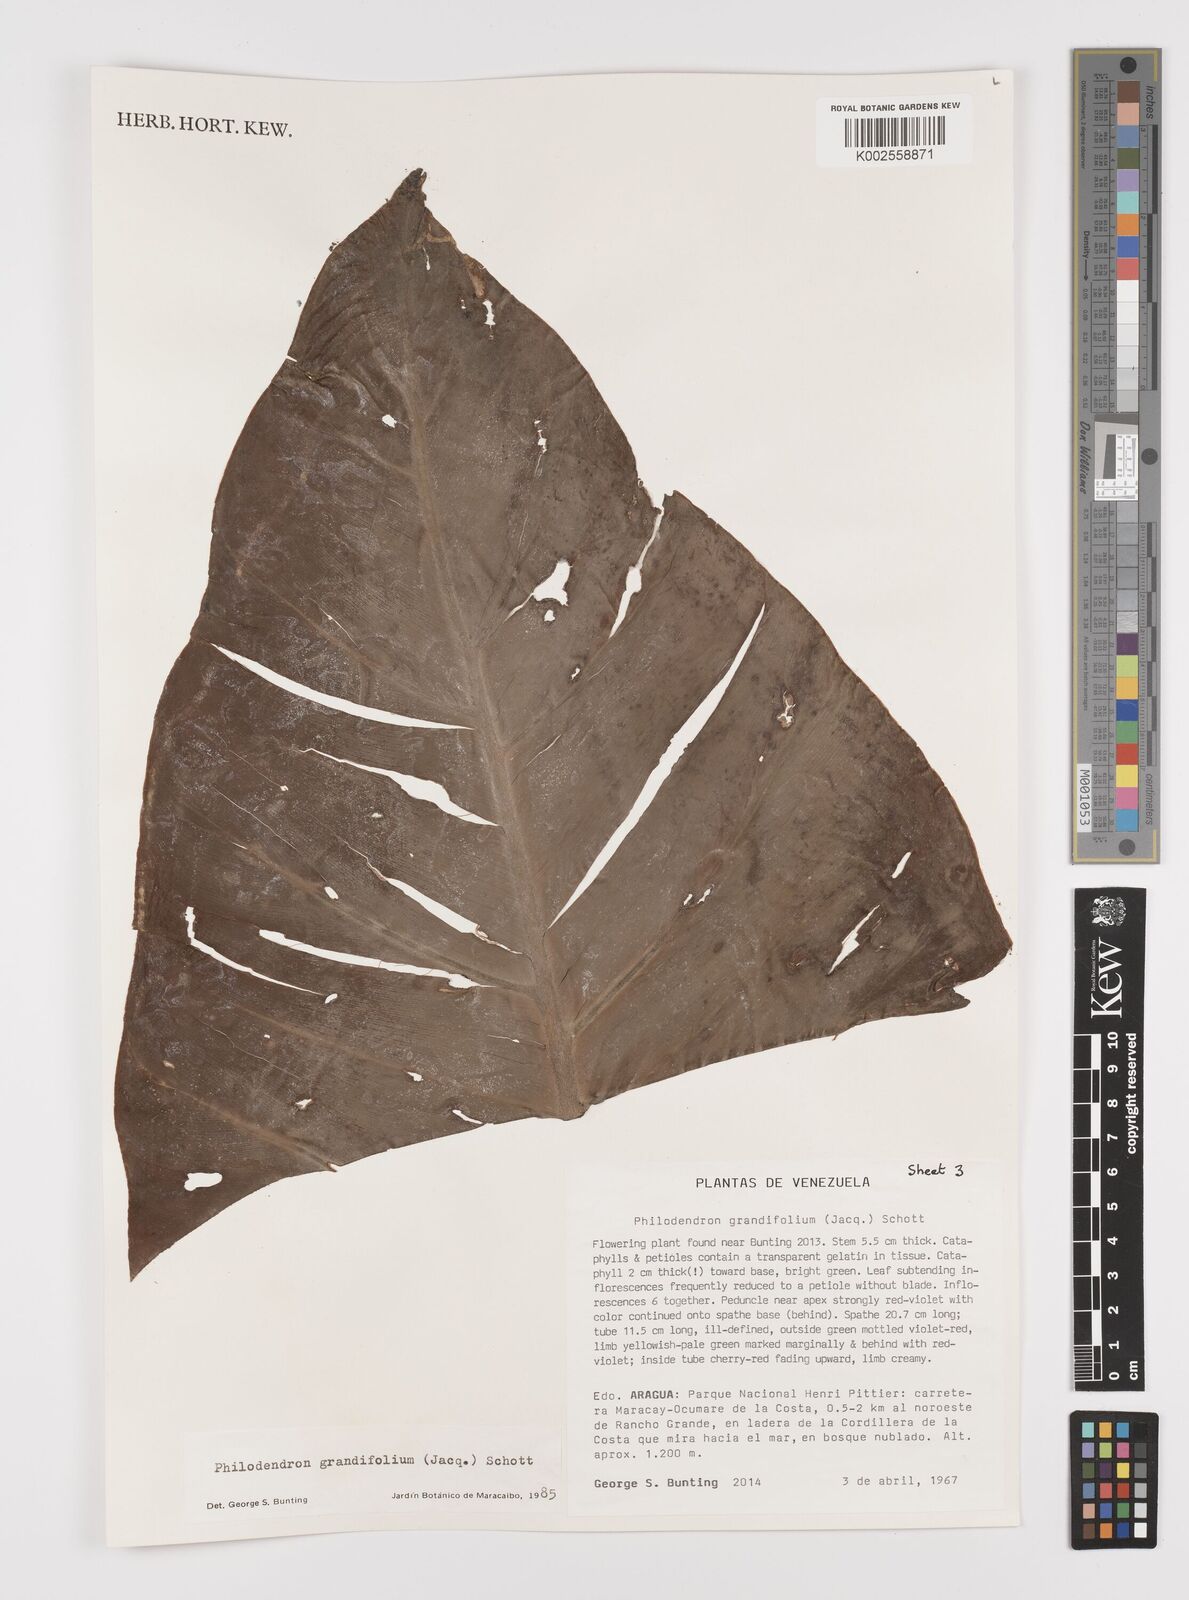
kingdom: Plantae
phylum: Tracheophyta
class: Liliopsida
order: Alismatales
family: Araceae
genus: Philodendron
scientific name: Philodendron grandifolium
